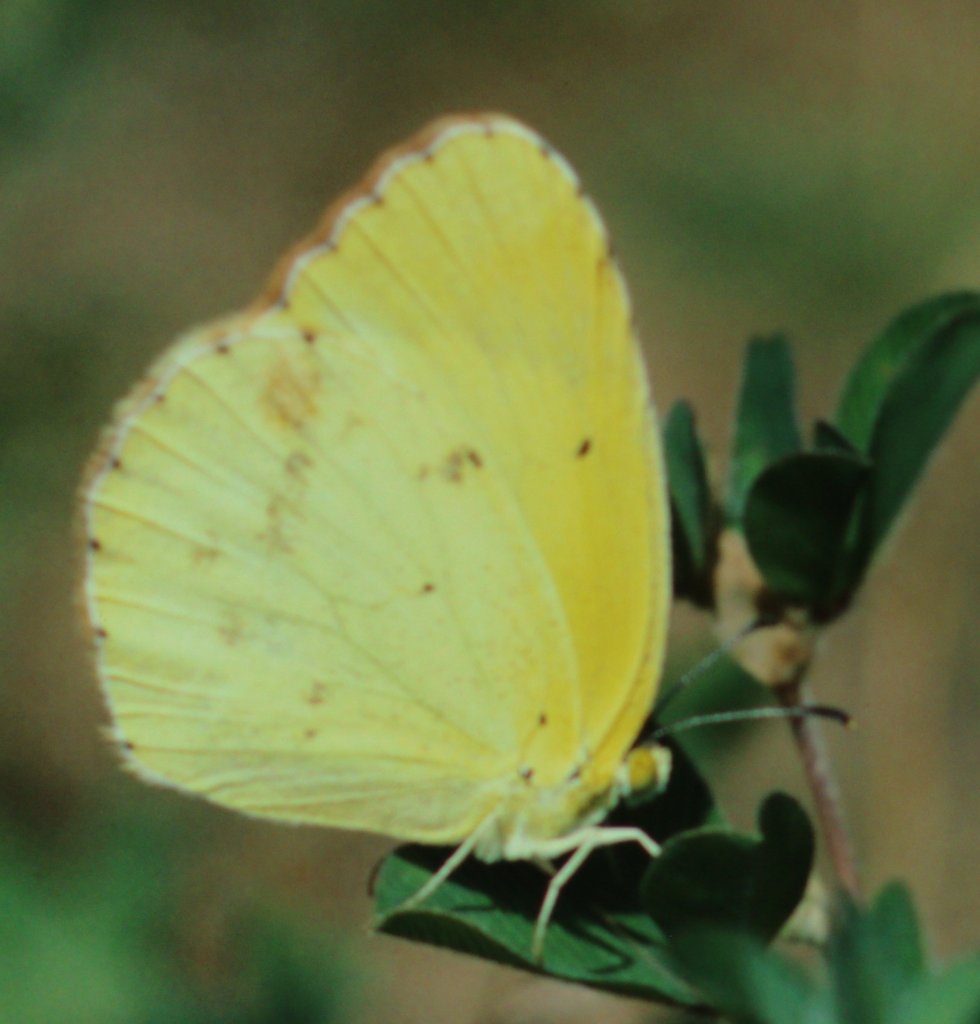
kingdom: Animalia
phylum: Arthropoda
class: Insecta
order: Lepidoptera
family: Pieridae
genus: Pyrisitia
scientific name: Pyrisitia lisa
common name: Little Yellow
